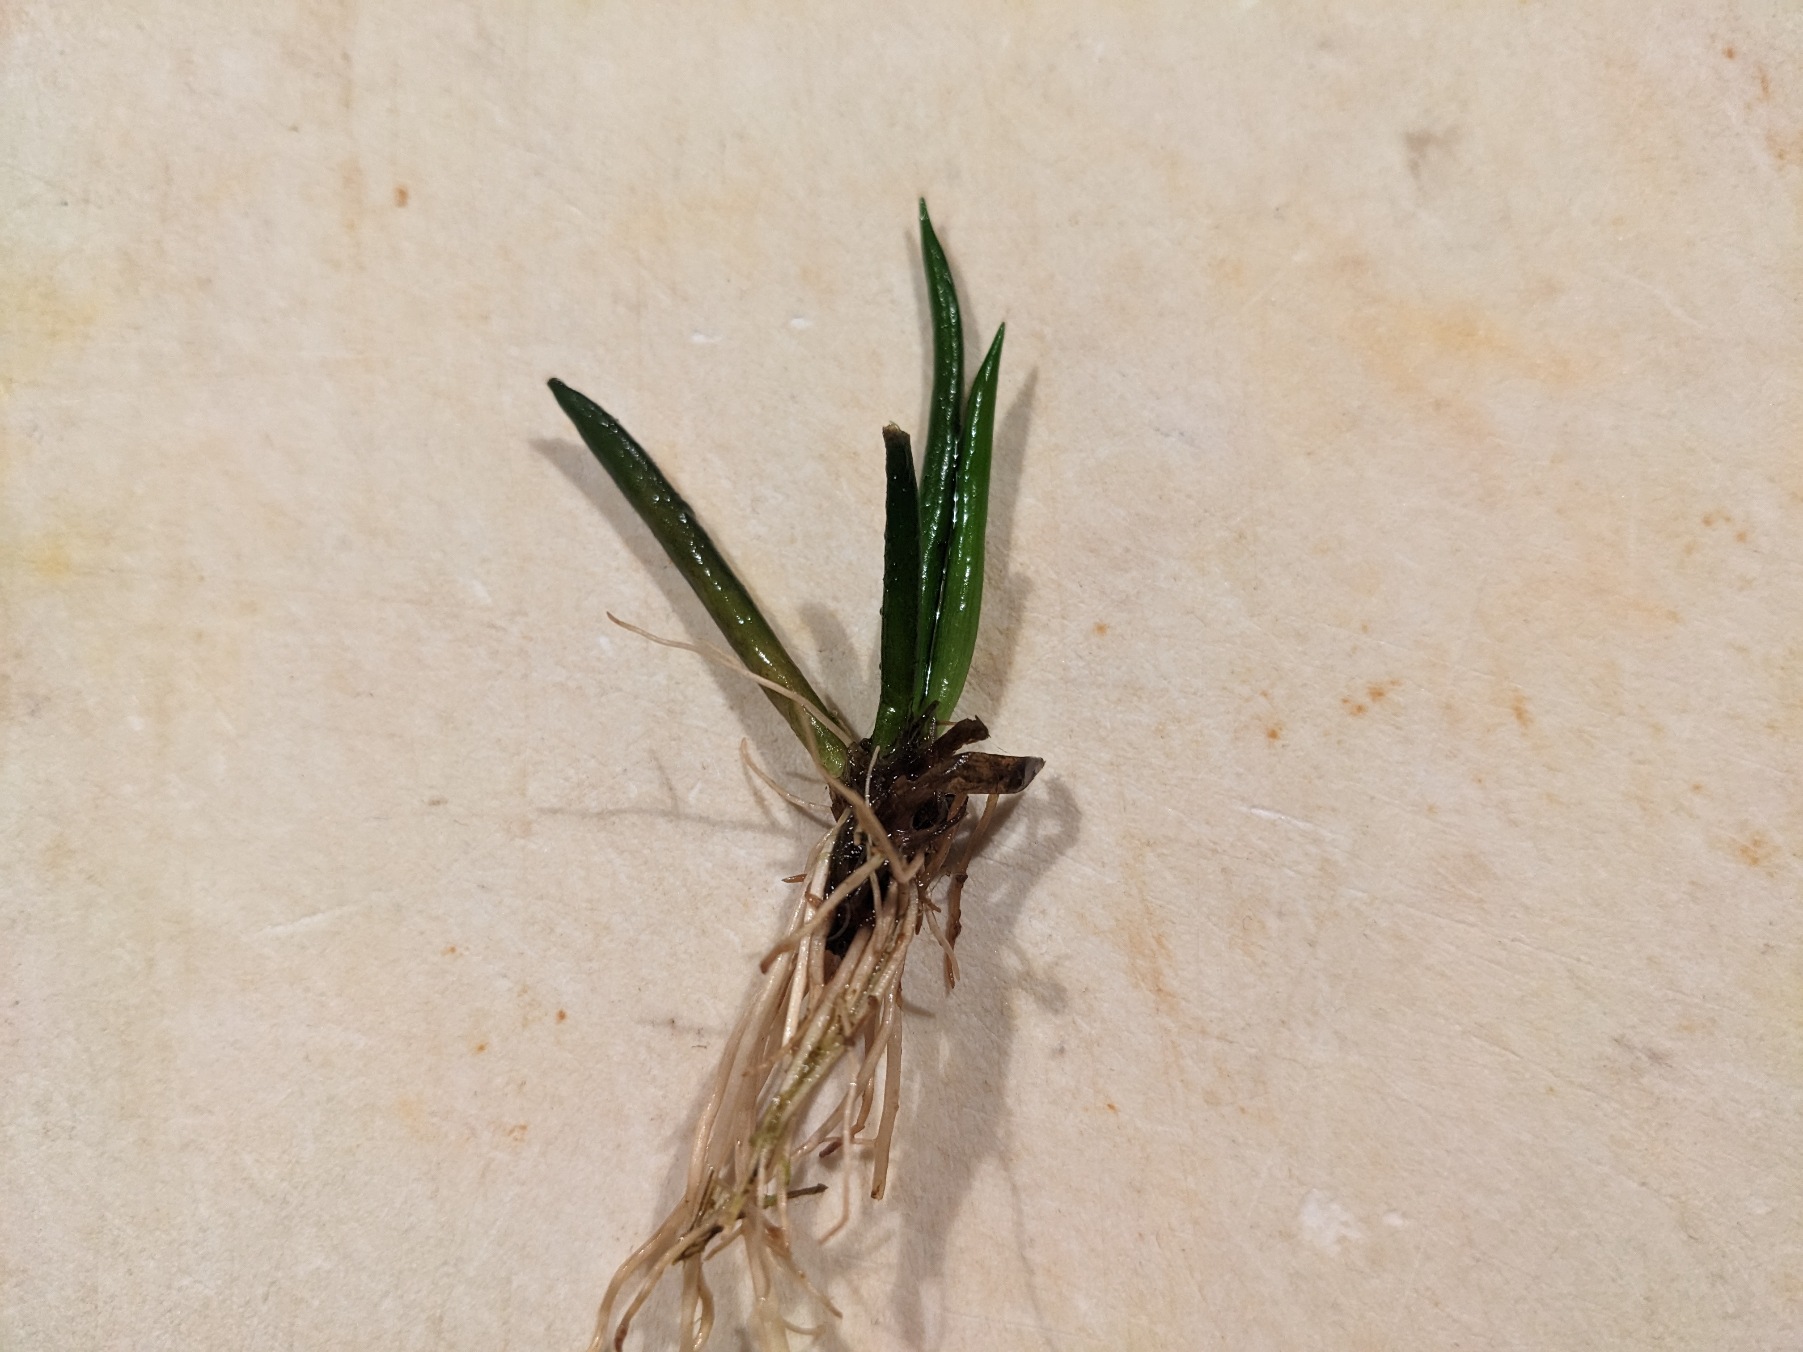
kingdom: Plantae
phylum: Tracheophyta
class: Magnoliopsida
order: Lamiales
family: Plantaginaceae
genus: Littorella
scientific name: Littorella uniflora
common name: Strandbo
